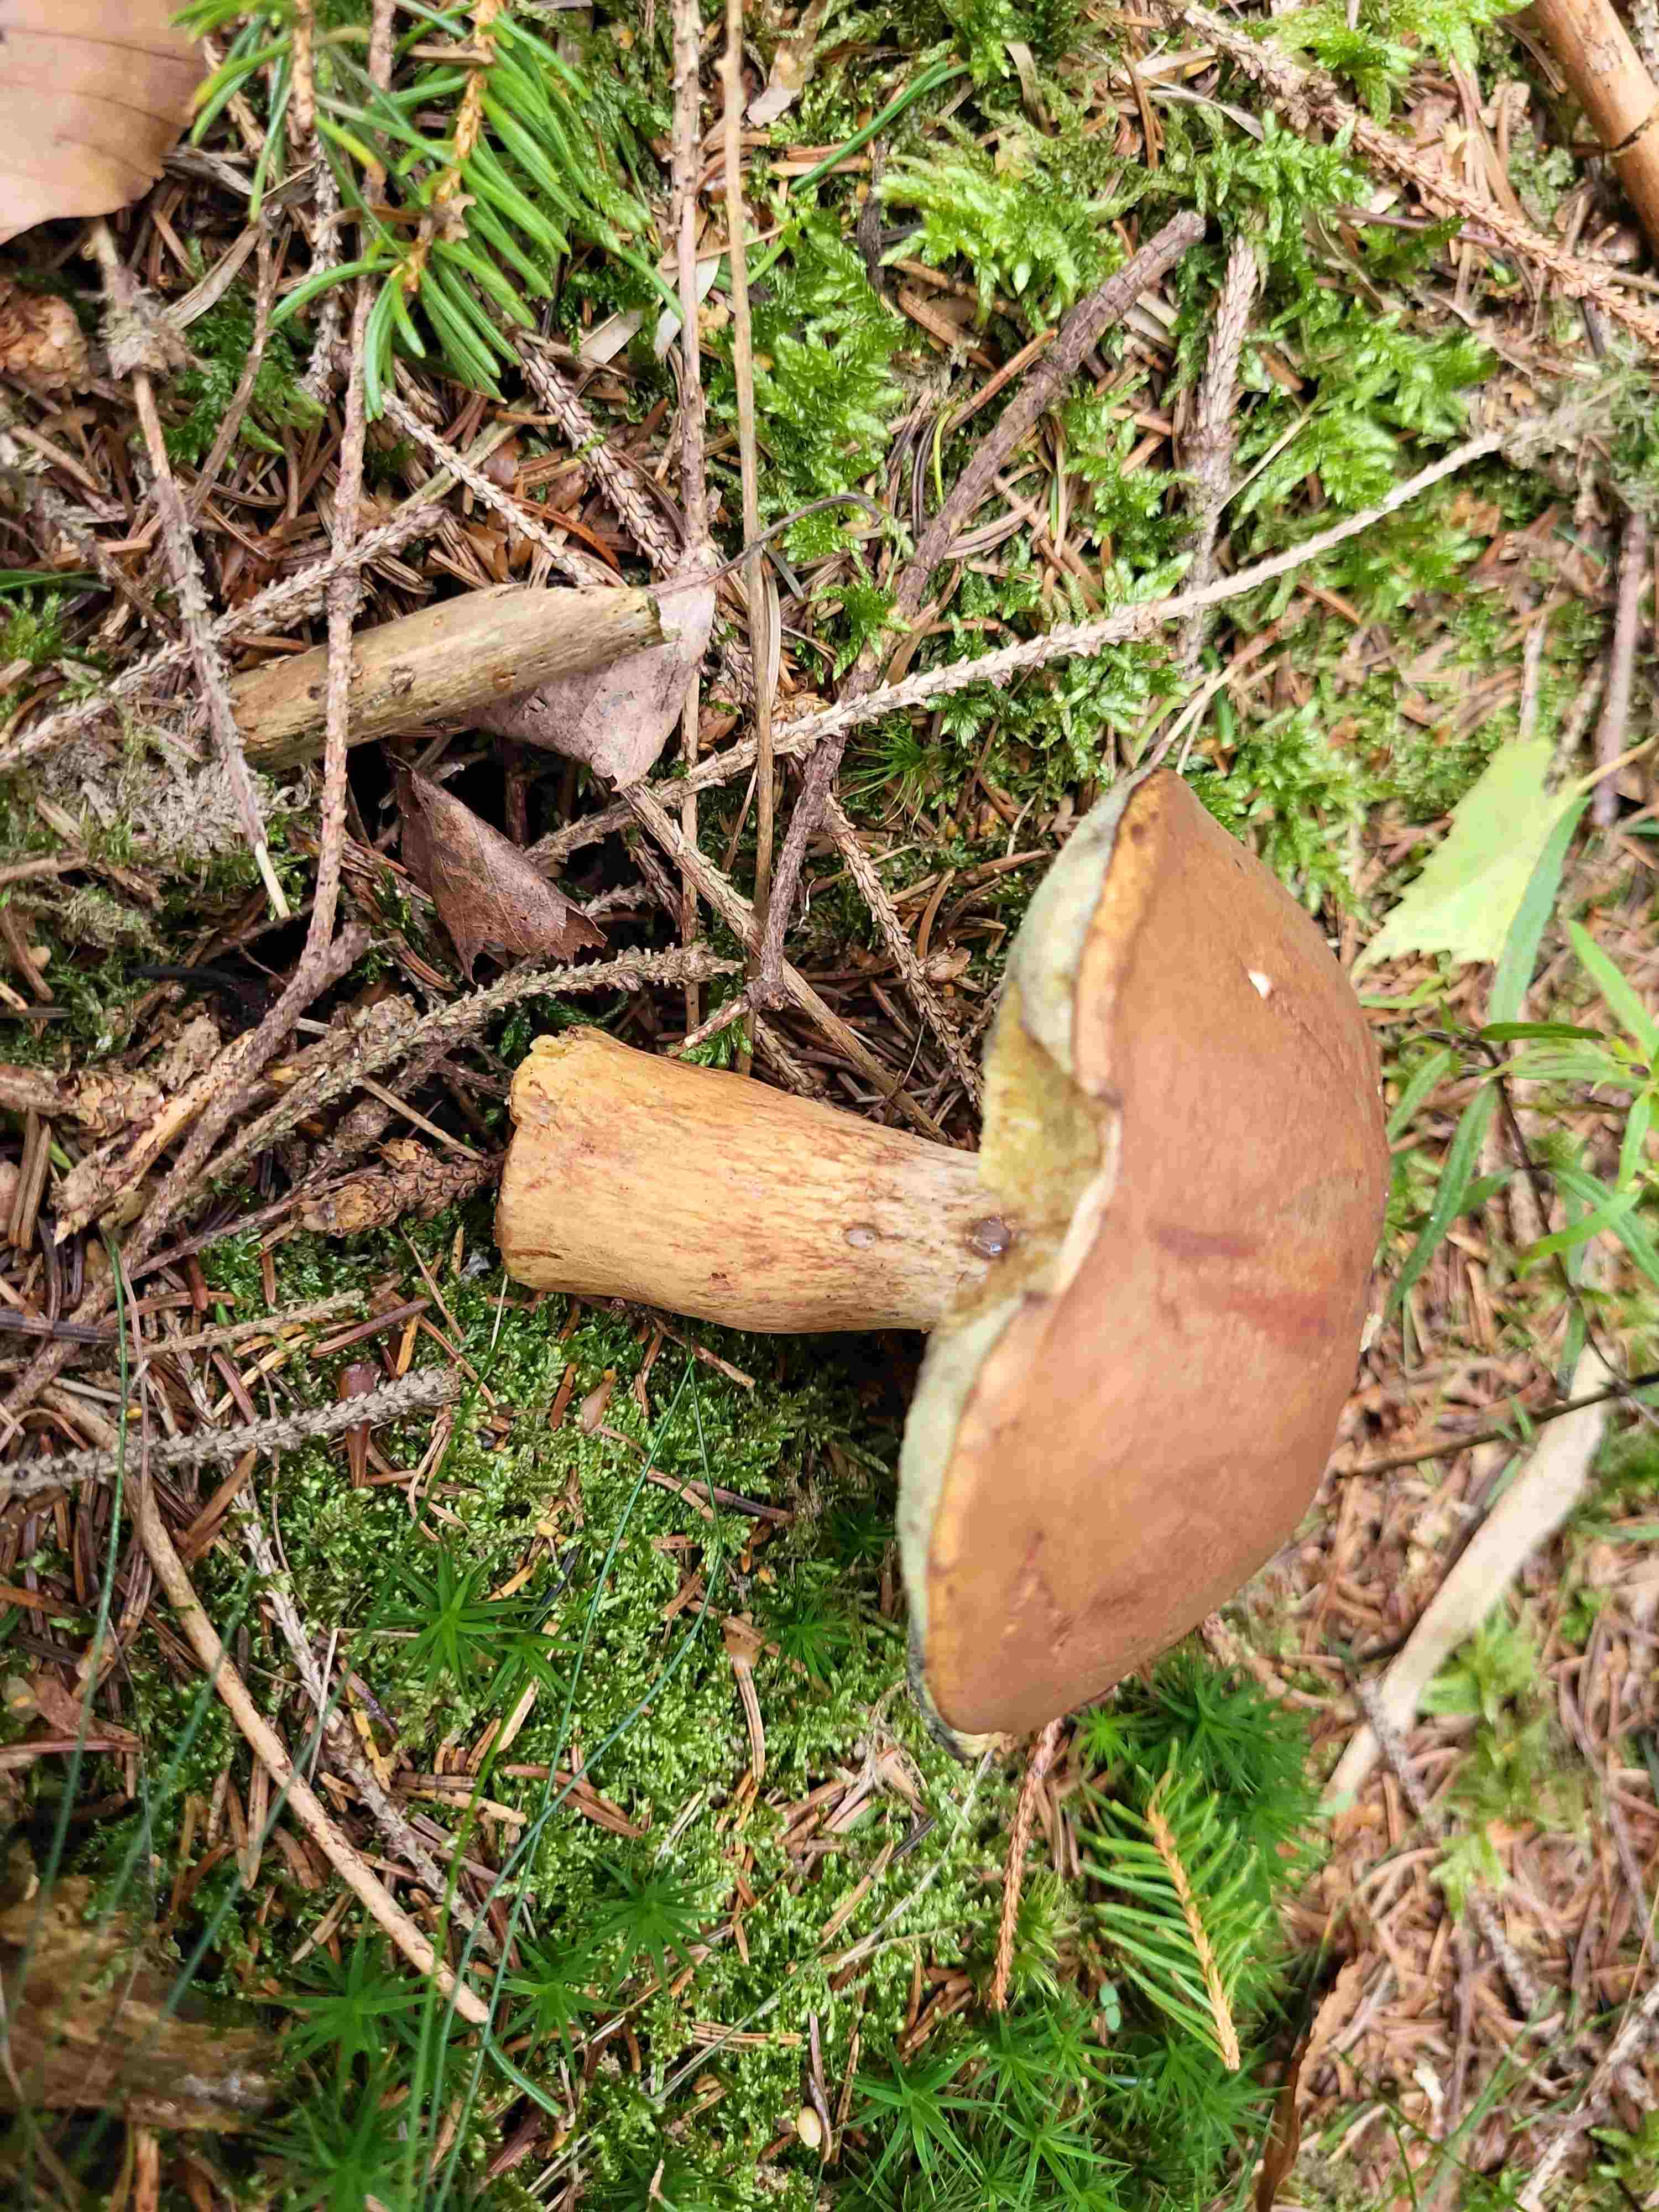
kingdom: Fungi
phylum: Basidiomycota
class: Agaricomycetes
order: Boletales
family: Boletaceae
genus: Imleria
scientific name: Imleria badia
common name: brunstokket rørhat
